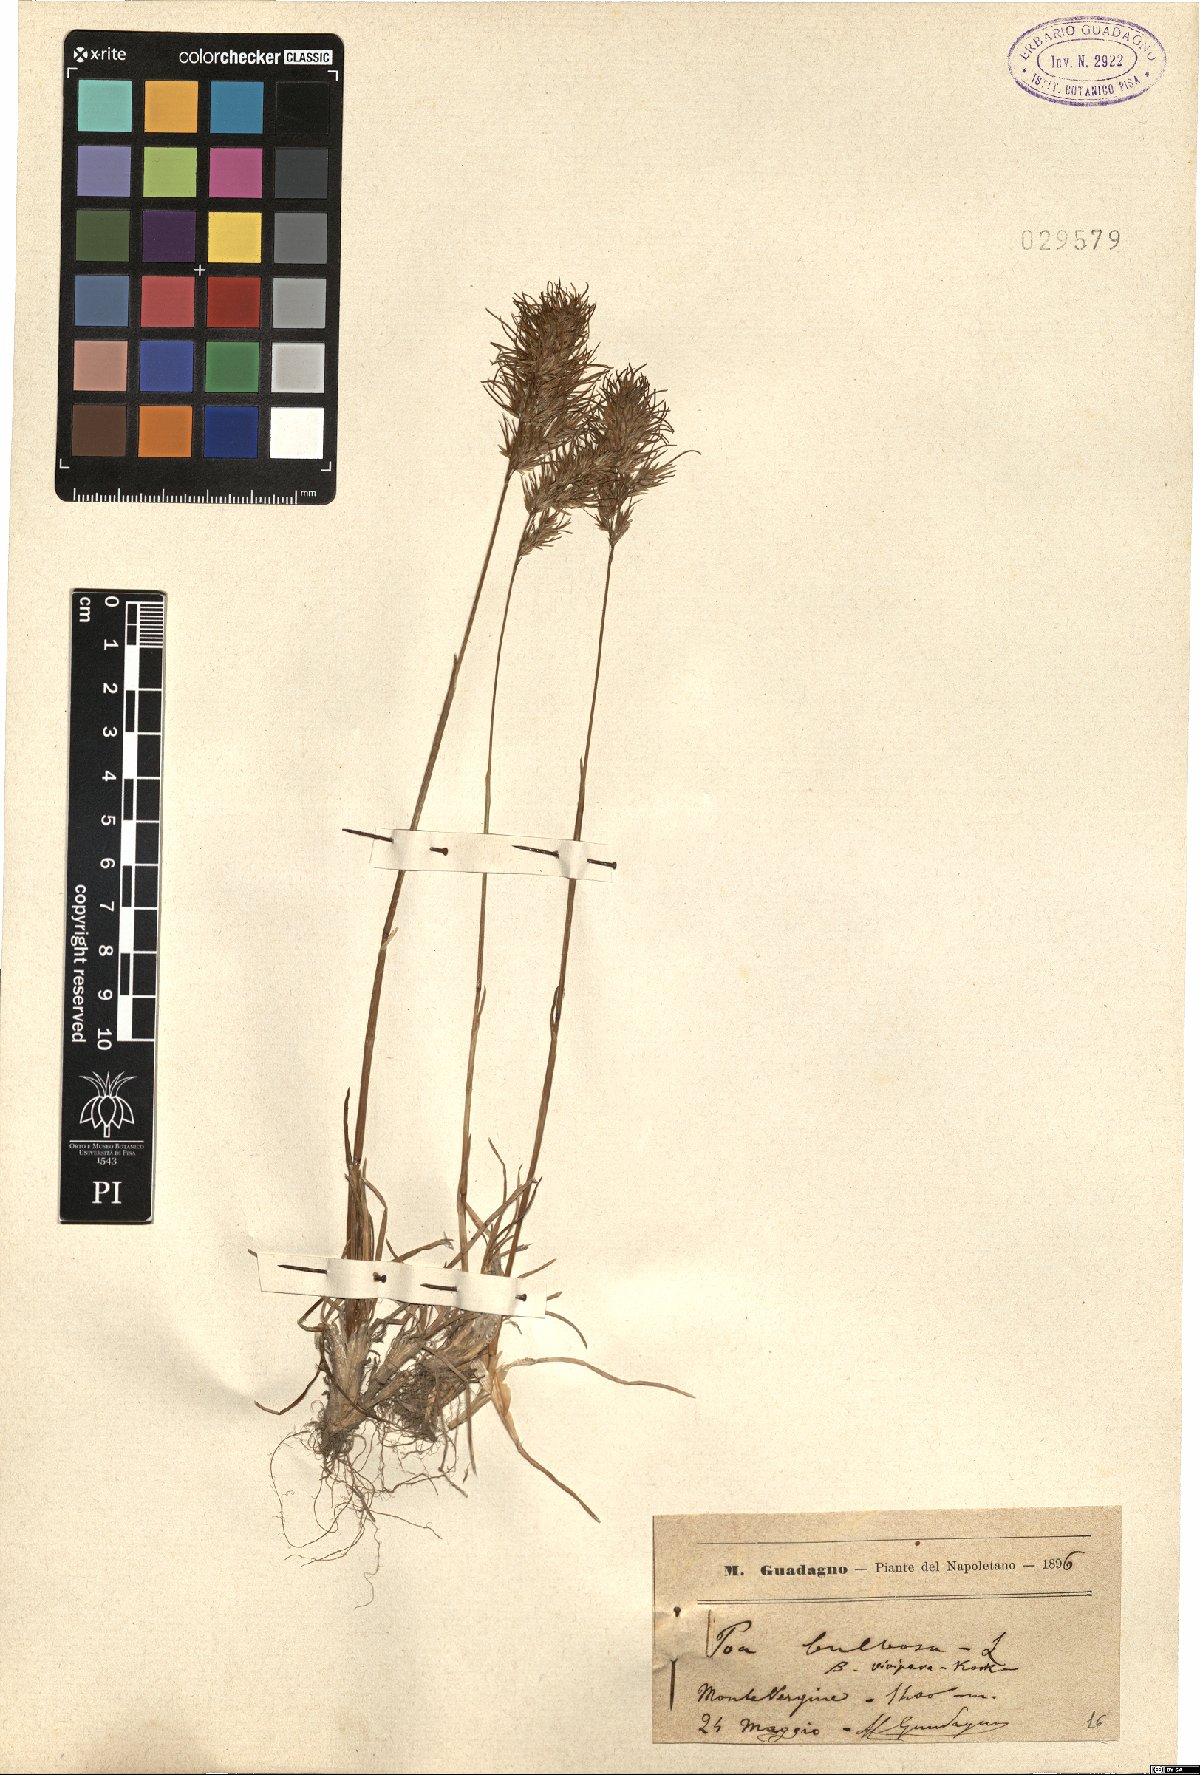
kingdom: Plantae
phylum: Tracheophyta
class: Liliopsida
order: Poales
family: Poaceae
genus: Poa
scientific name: Poa bulbosa
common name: Bulbous bluegrass
